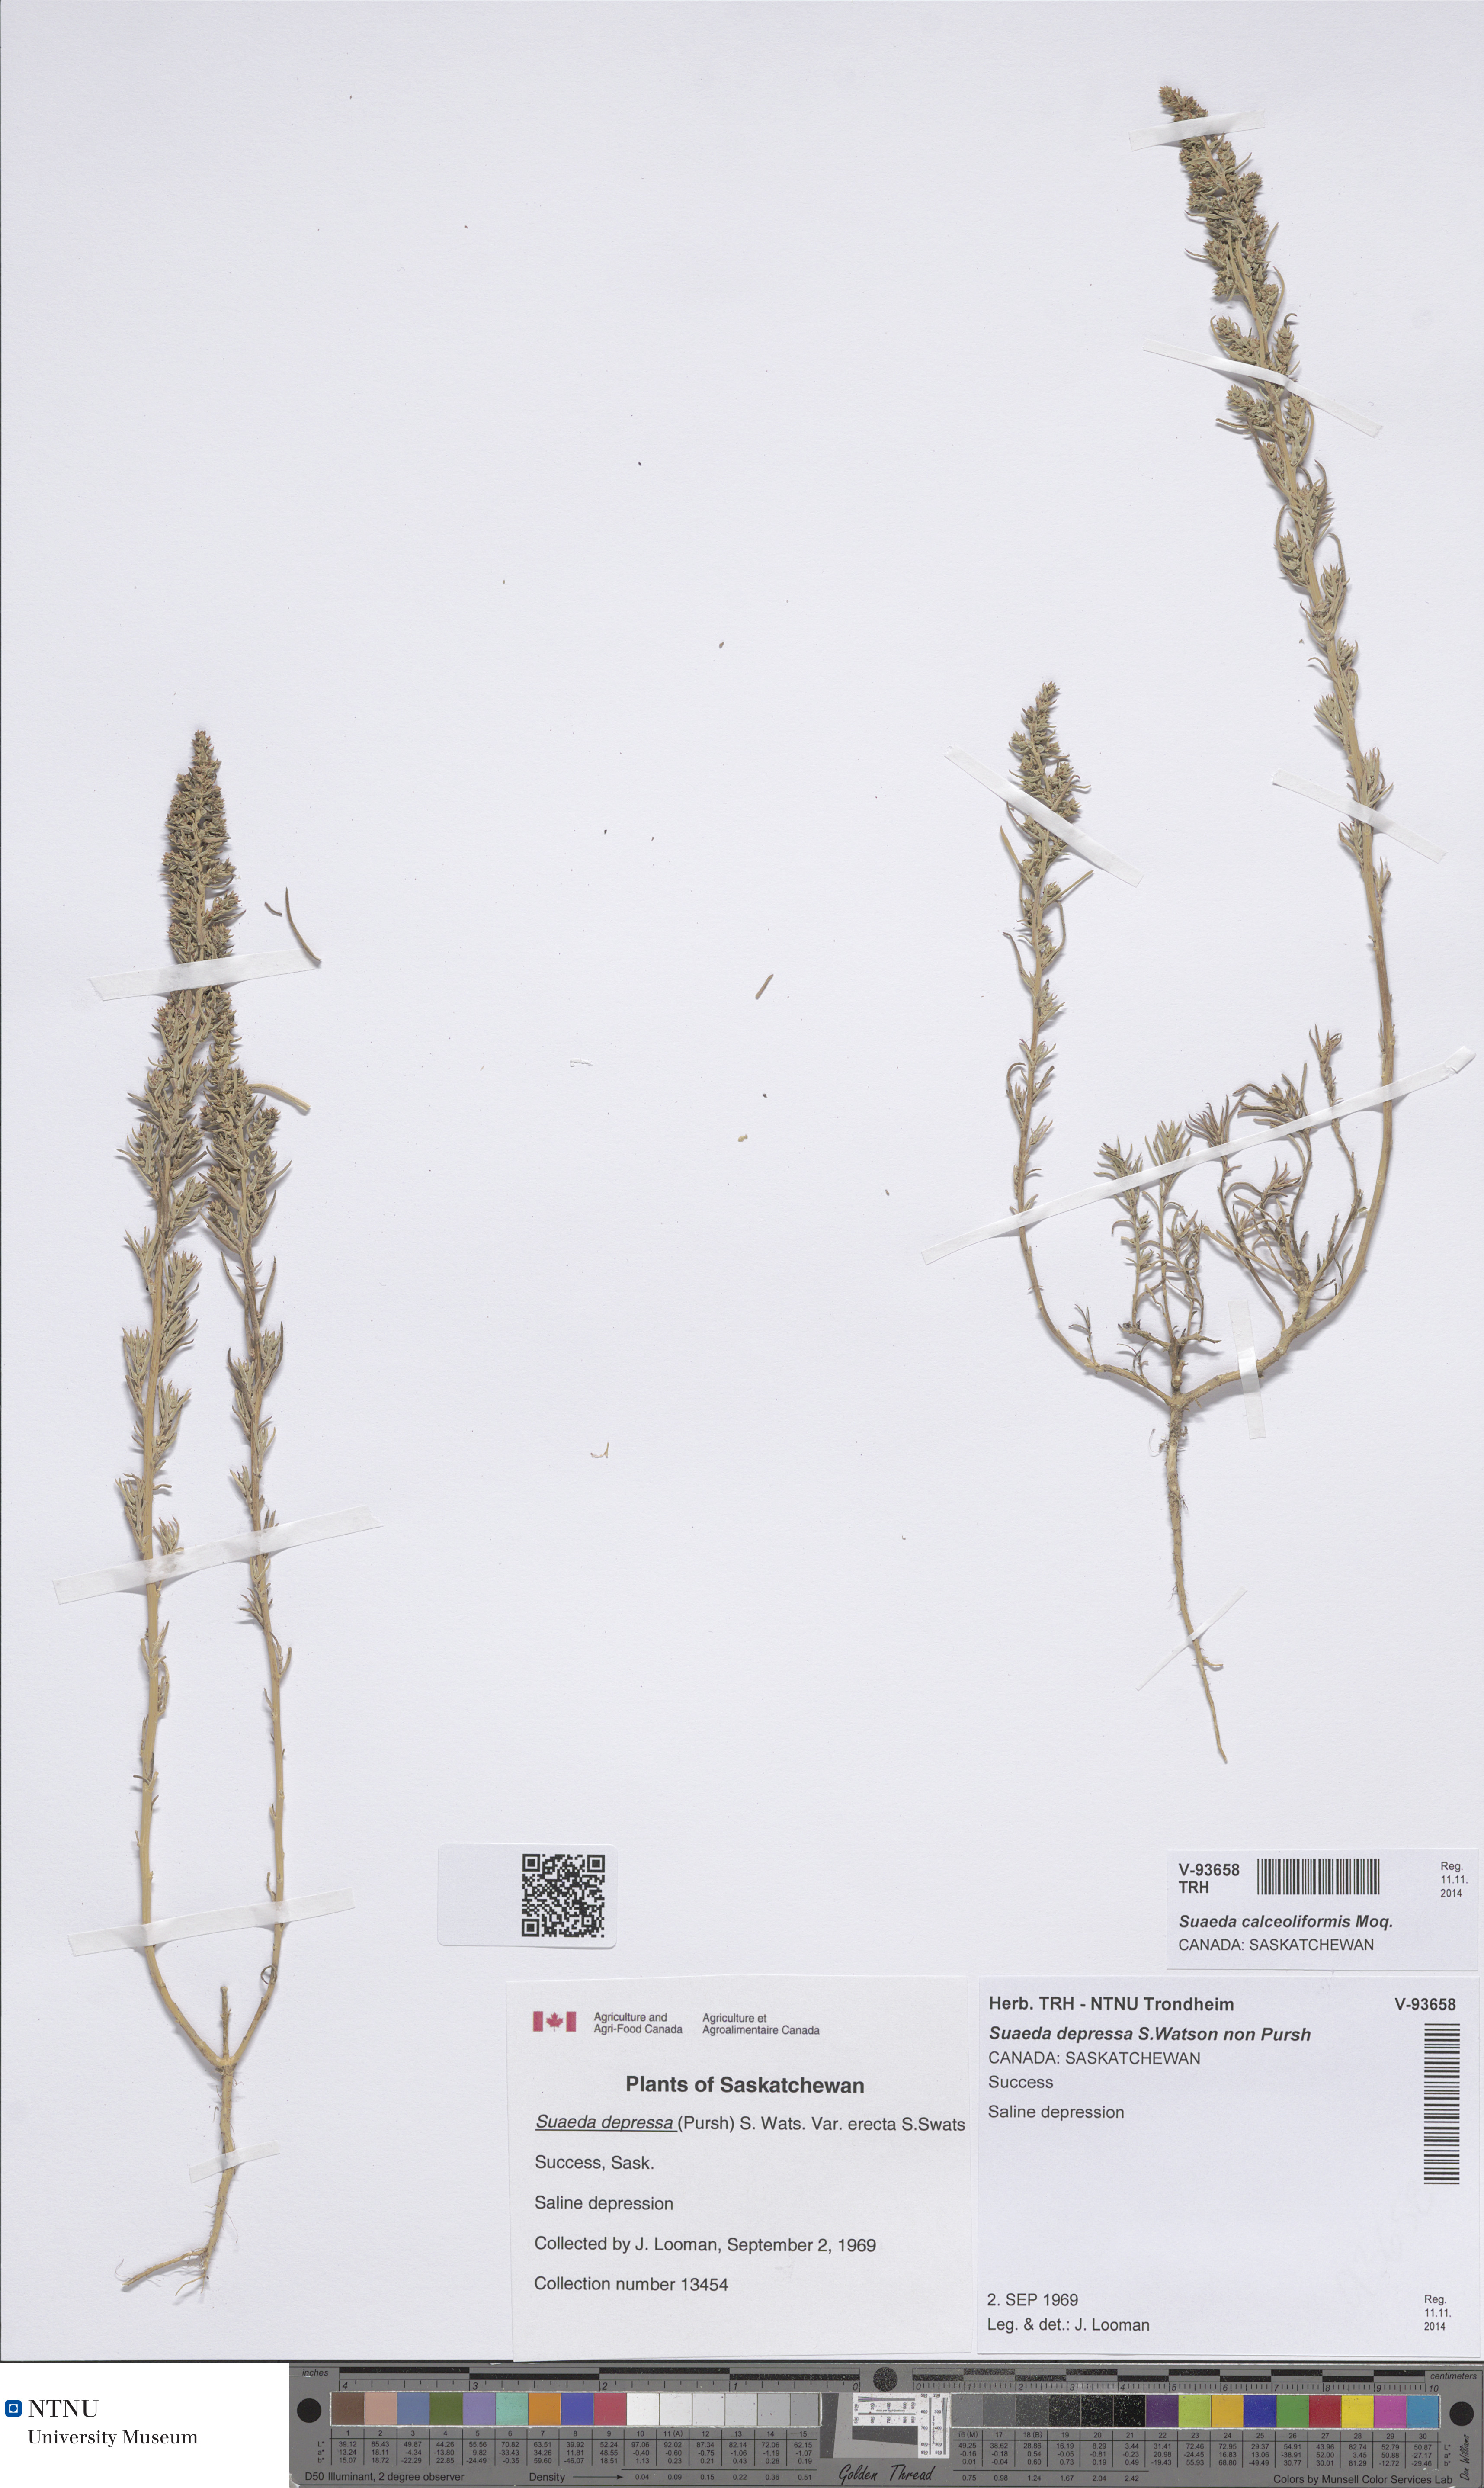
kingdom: Plantae
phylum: Tracheophyta
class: Magnoliopsida
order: Caryophyllales
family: Amaranthaceae
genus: Suaeda
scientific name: Suaeda calceoliformis
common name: Pursh's seepweed
